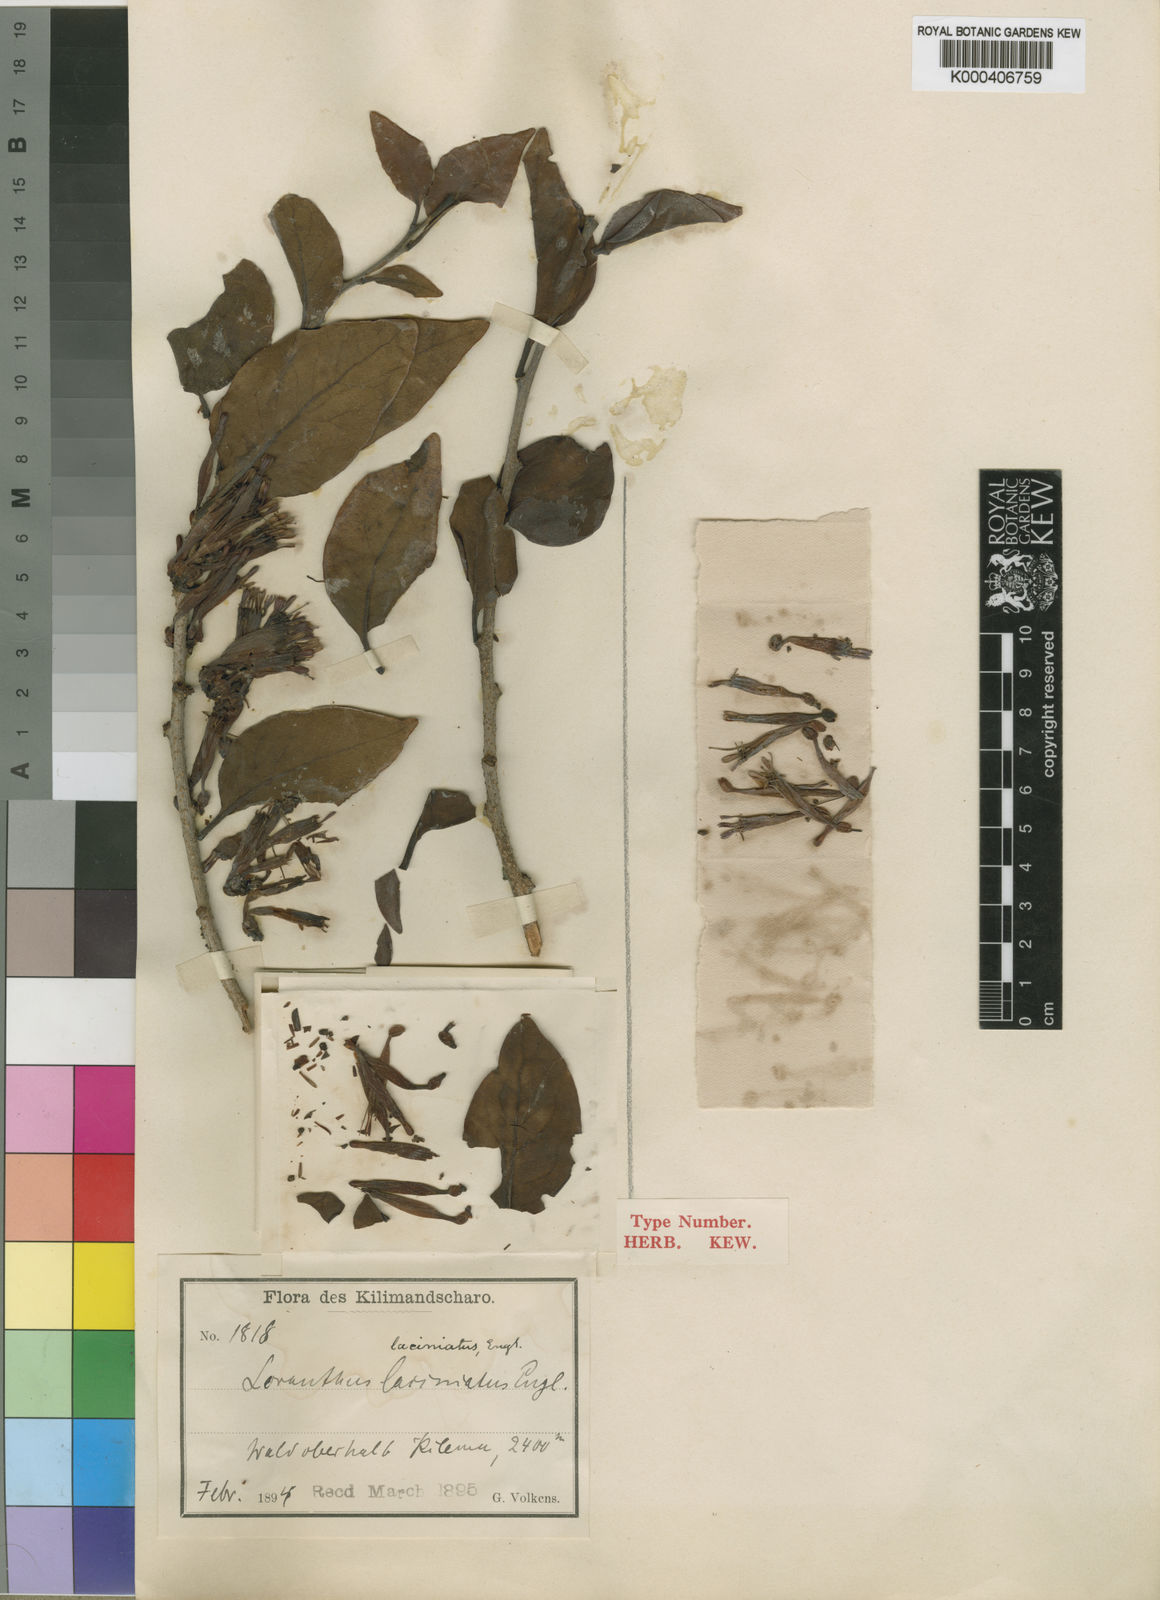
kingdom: Plantae
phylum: Tracheophyta
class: Magnoliopsida
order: Santalales
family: Loranthaceae
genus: Loranthella
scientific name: Loranthella kilimandscharica
